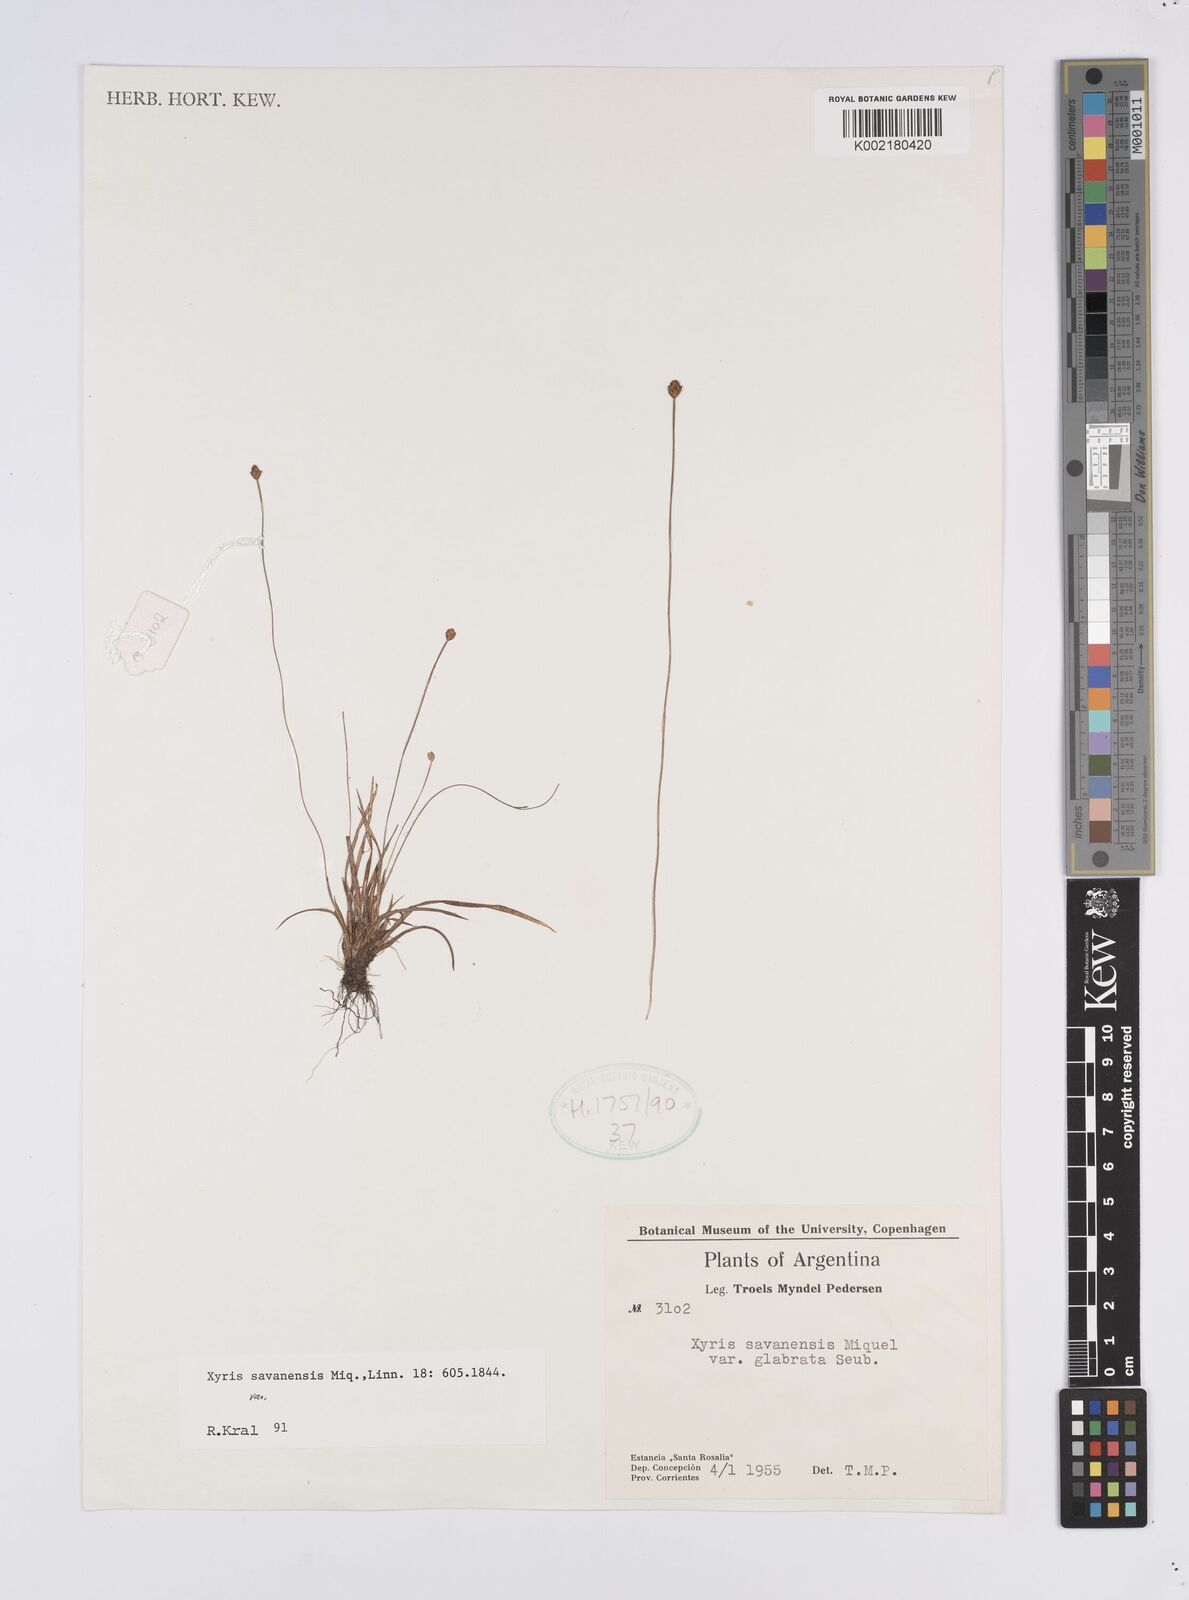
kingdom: Plantae
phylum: Tracheophyta
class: Liliopsida
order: Poales
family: Xyridaceae
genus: Xyris
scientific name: Xyris savanensis
